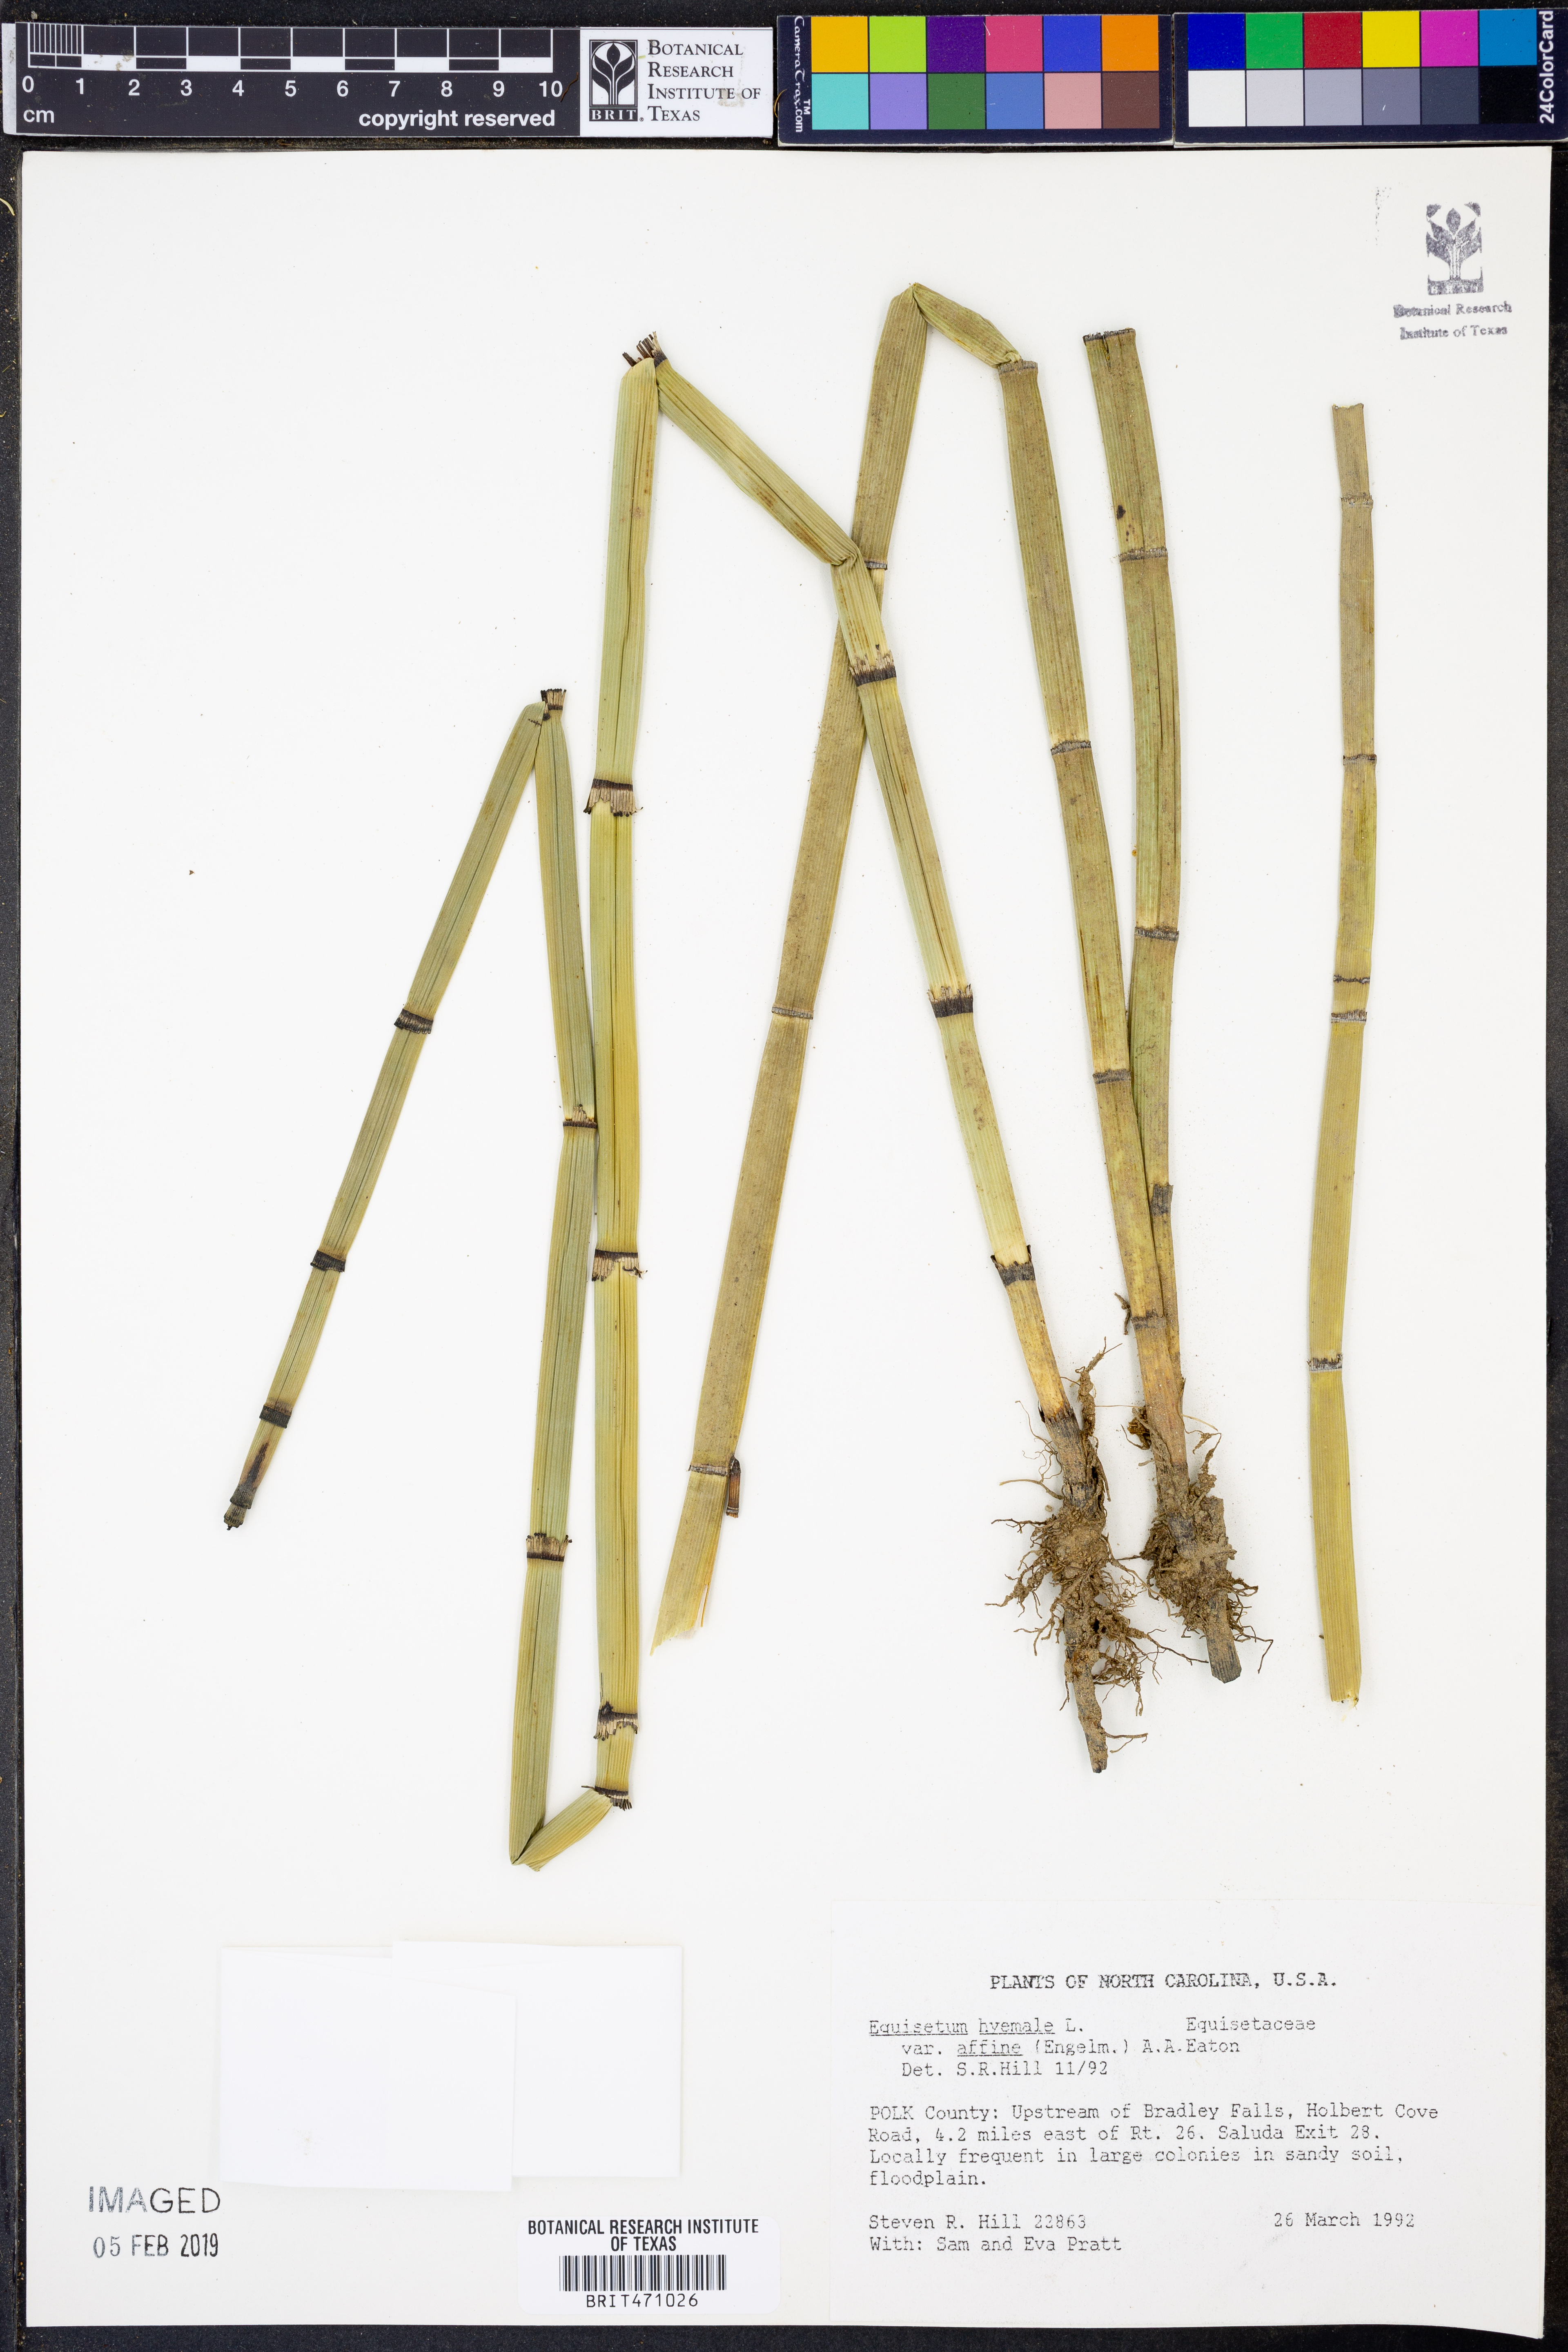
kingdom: Plantae
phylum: Tracheophyta
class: Polypodiopsida
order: Equisetales
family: Equisetaceae
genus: Equisetum
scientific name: Equisetum praealtum
